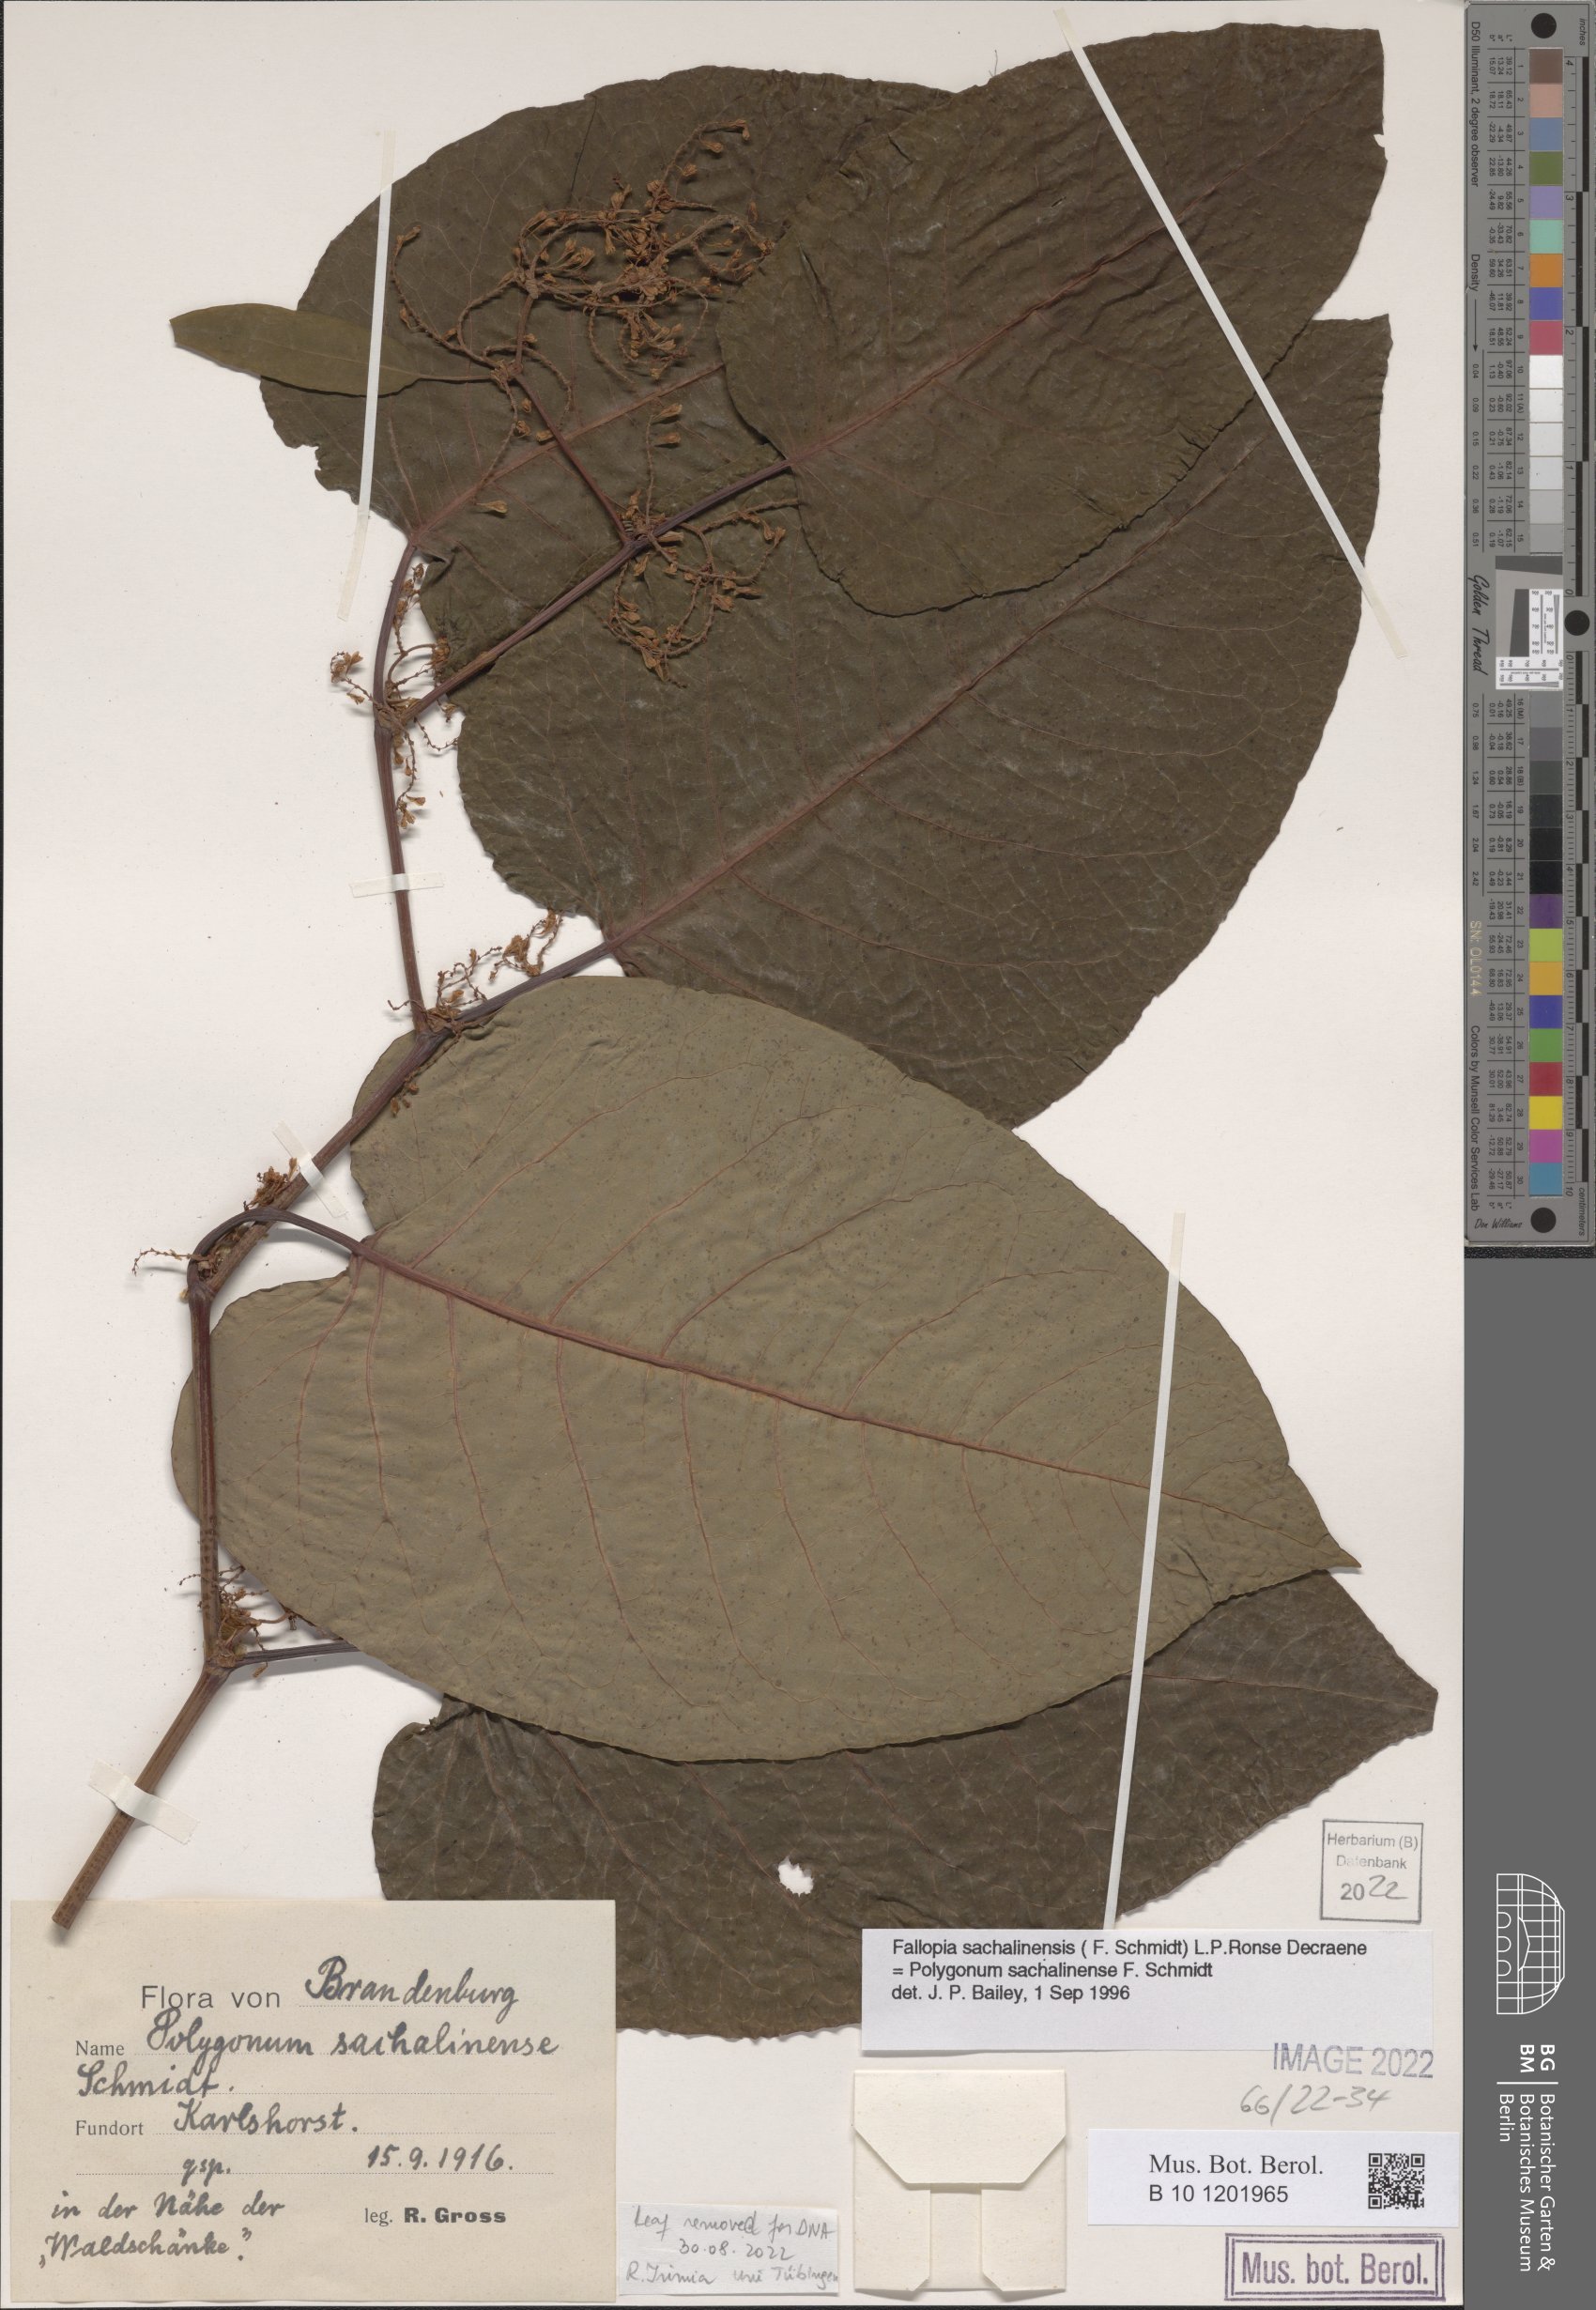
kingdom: Plantae
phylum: Tracheophyta
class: Magnoliopsida
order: Caryophyllales
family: Polygonaceae
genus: Reynoutria
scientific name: Reynoutria sachalinensis
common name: Giant knotweed
